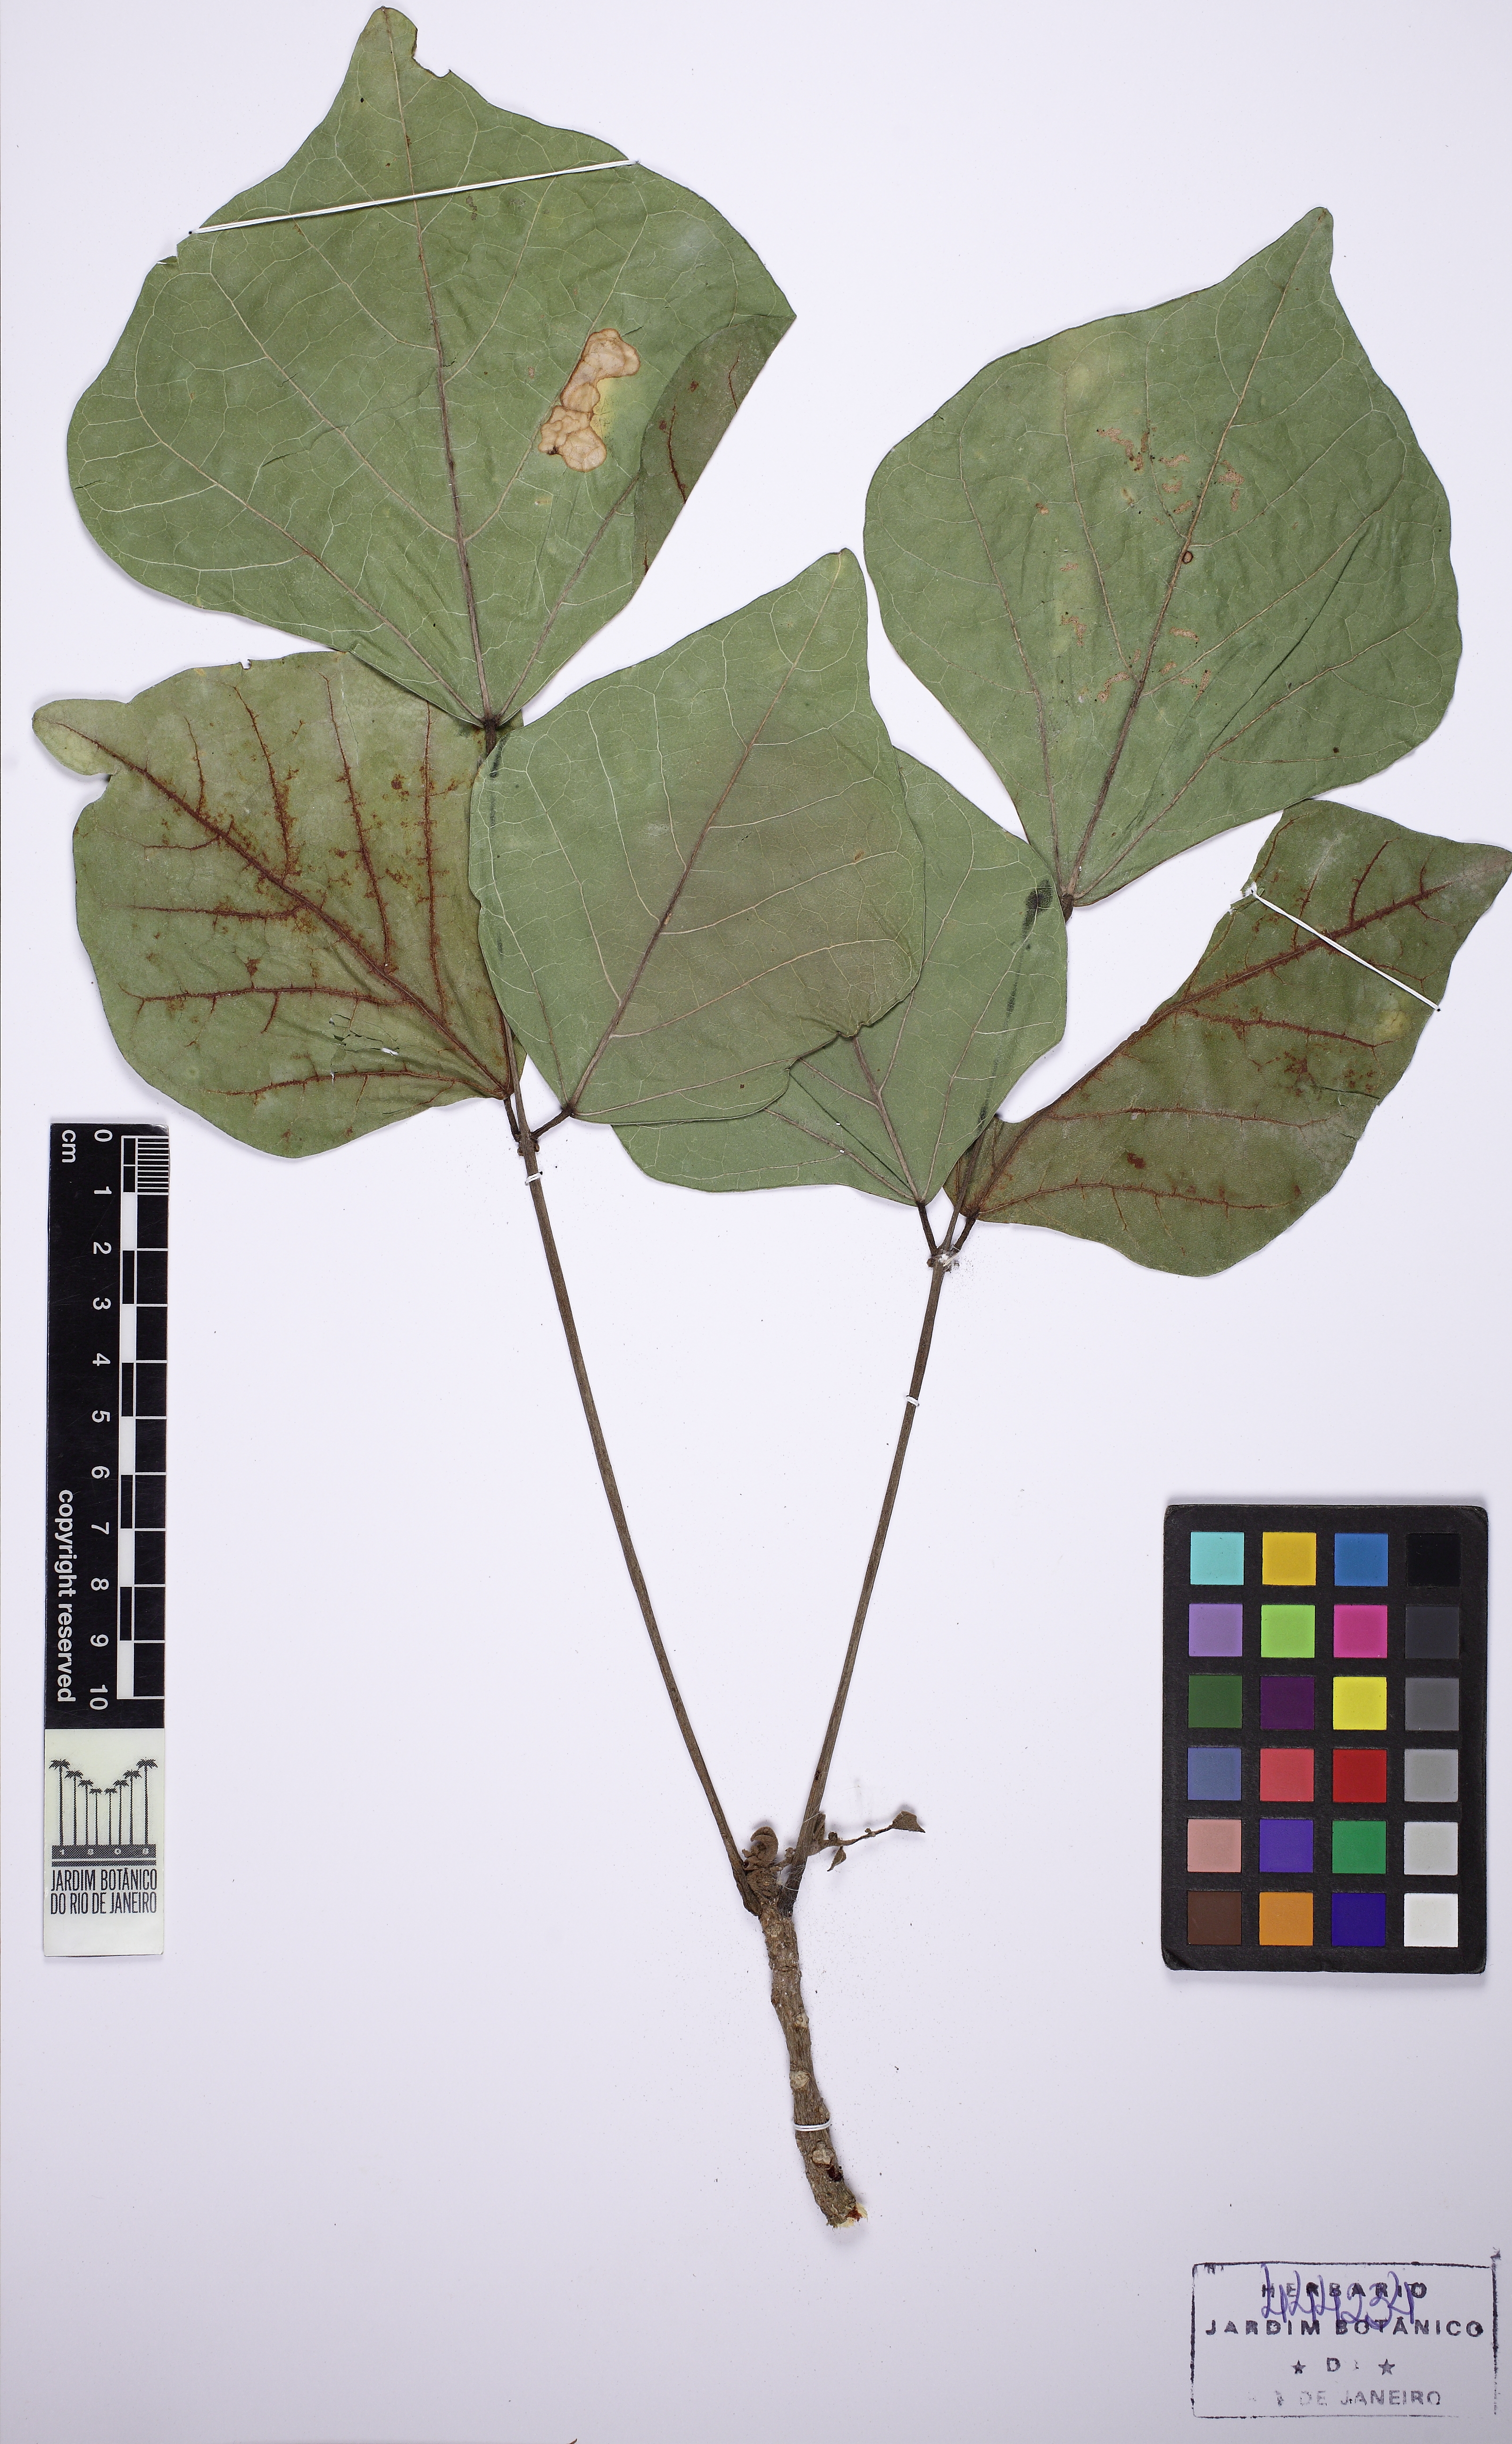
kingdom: Plantae
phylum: Tracheophyta
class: Magnoliopsida
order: Fabales
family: Fabaceae
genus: Erythrina
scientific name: Erythrina variegata
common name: Indian coral tree
